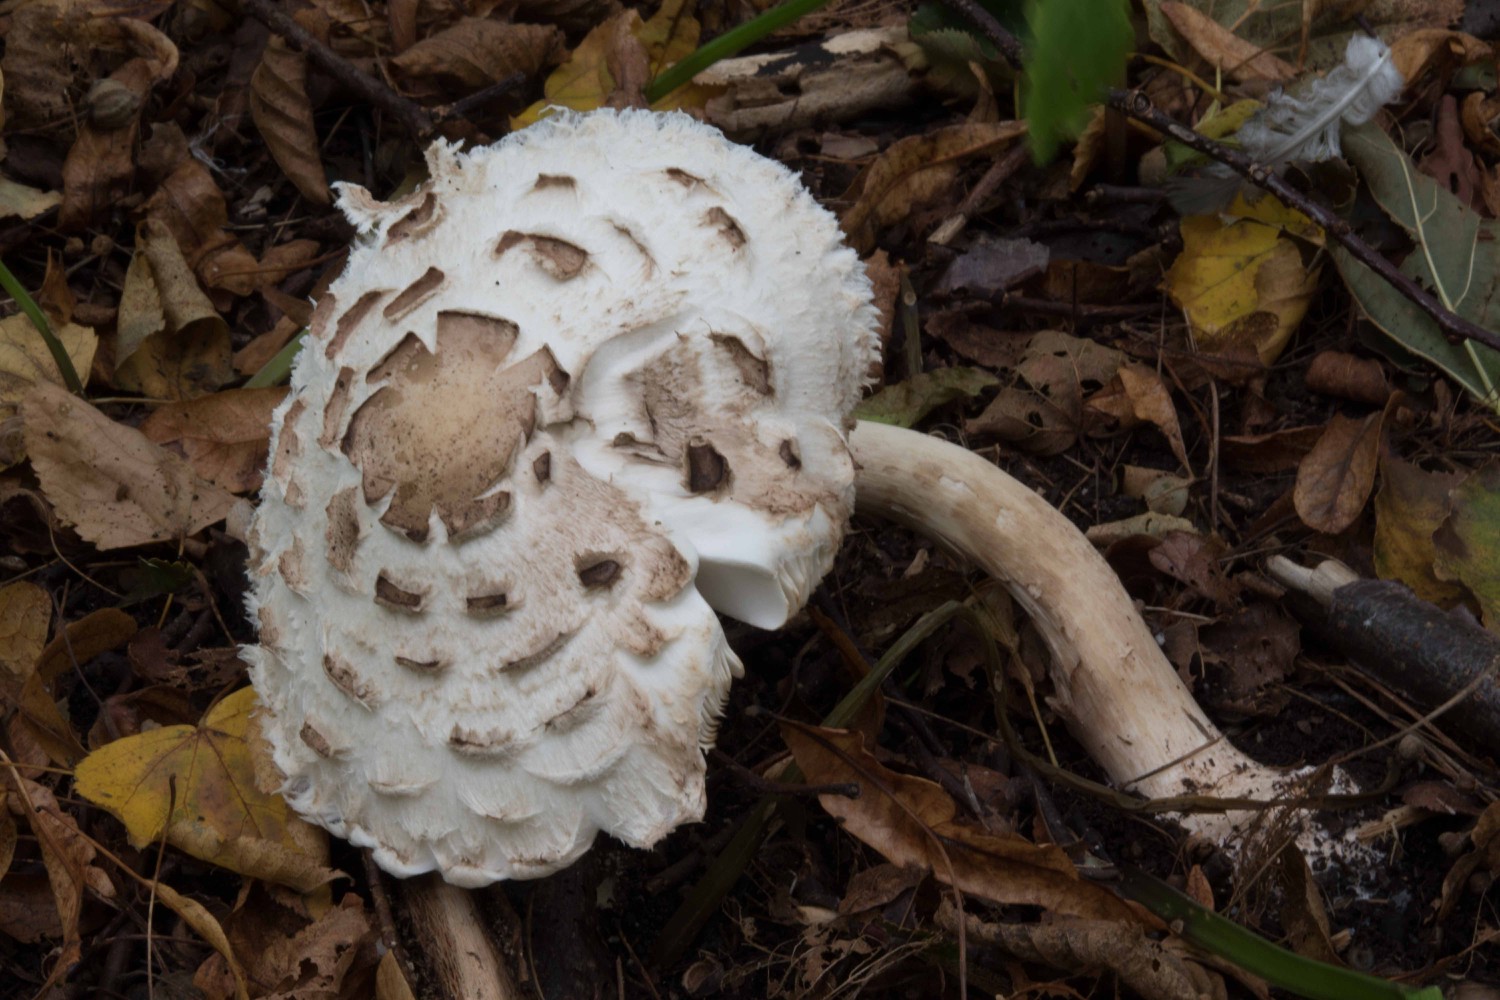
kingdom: Fungi
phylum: Basidiomycota
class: Agaricomycetes
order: Agaricales
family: Agaricaceae
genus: Chlorophyllum
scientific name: Chlorophyllum brunneum
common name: giftig rabarberhat
